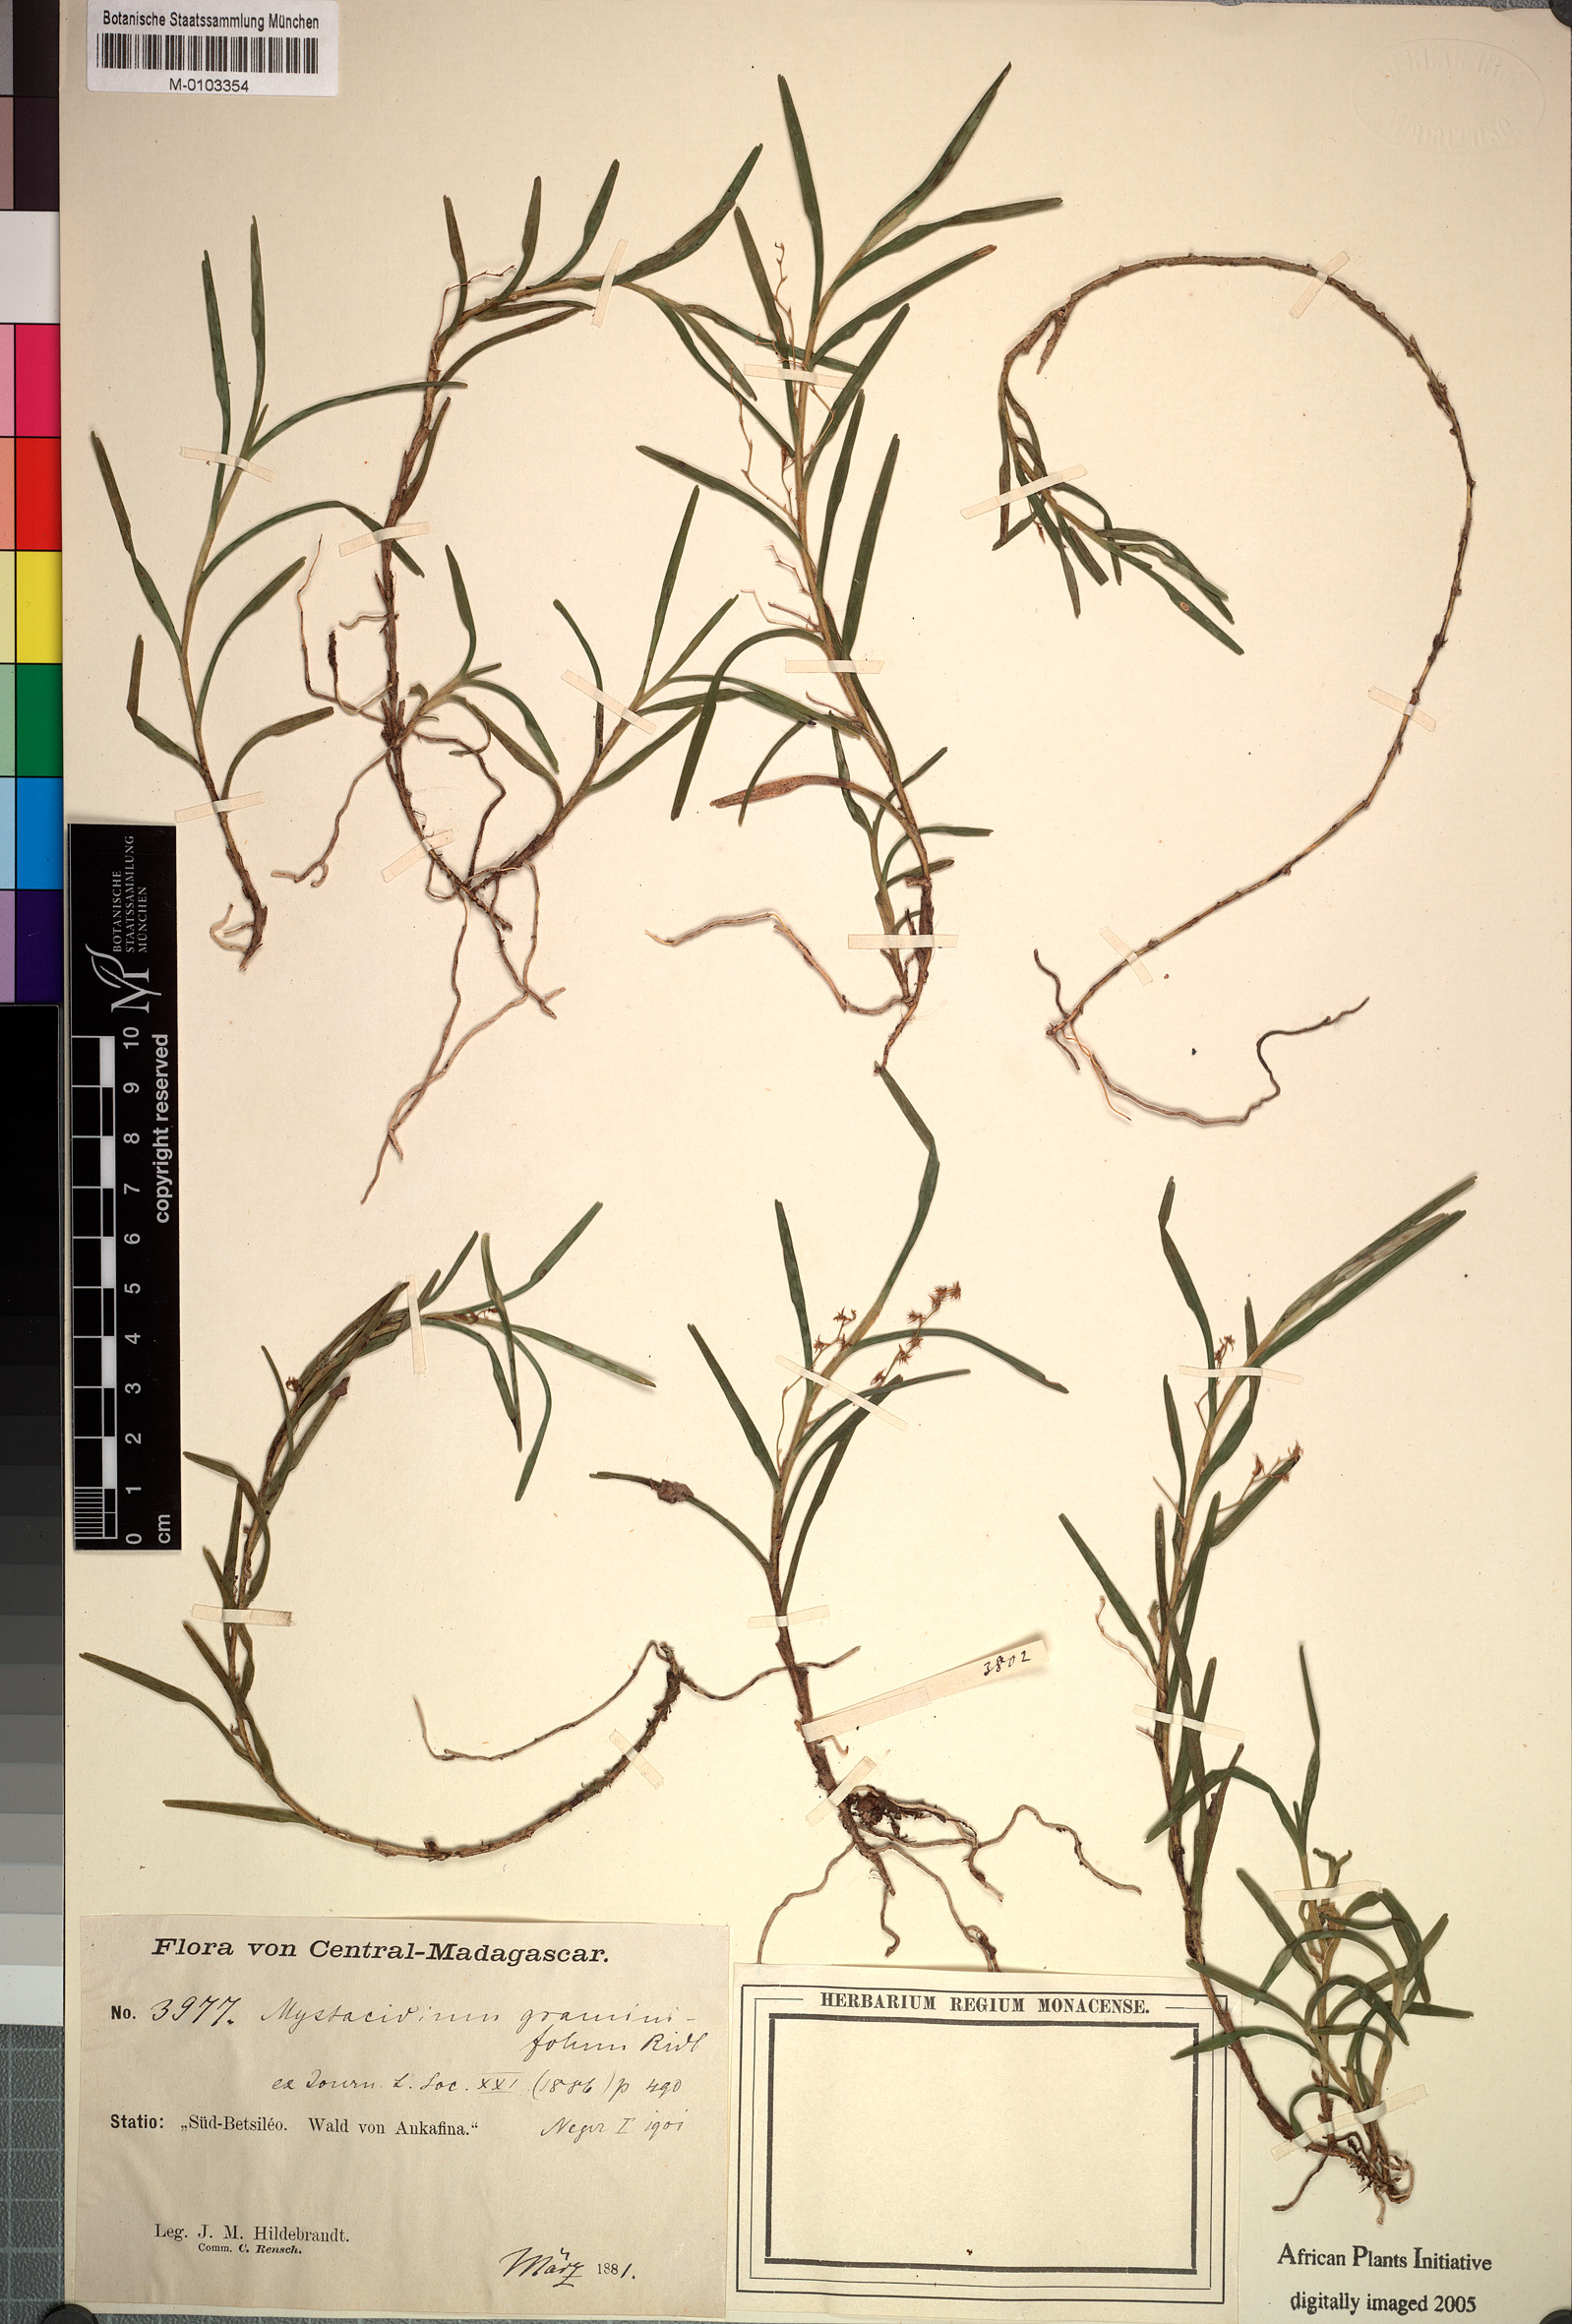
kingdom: Plantae
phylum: Tracheophyta
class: Liliopsida
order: Asparagales
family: Orchidaceae
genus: Angraecum
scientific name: Angraecum pauciramosum
